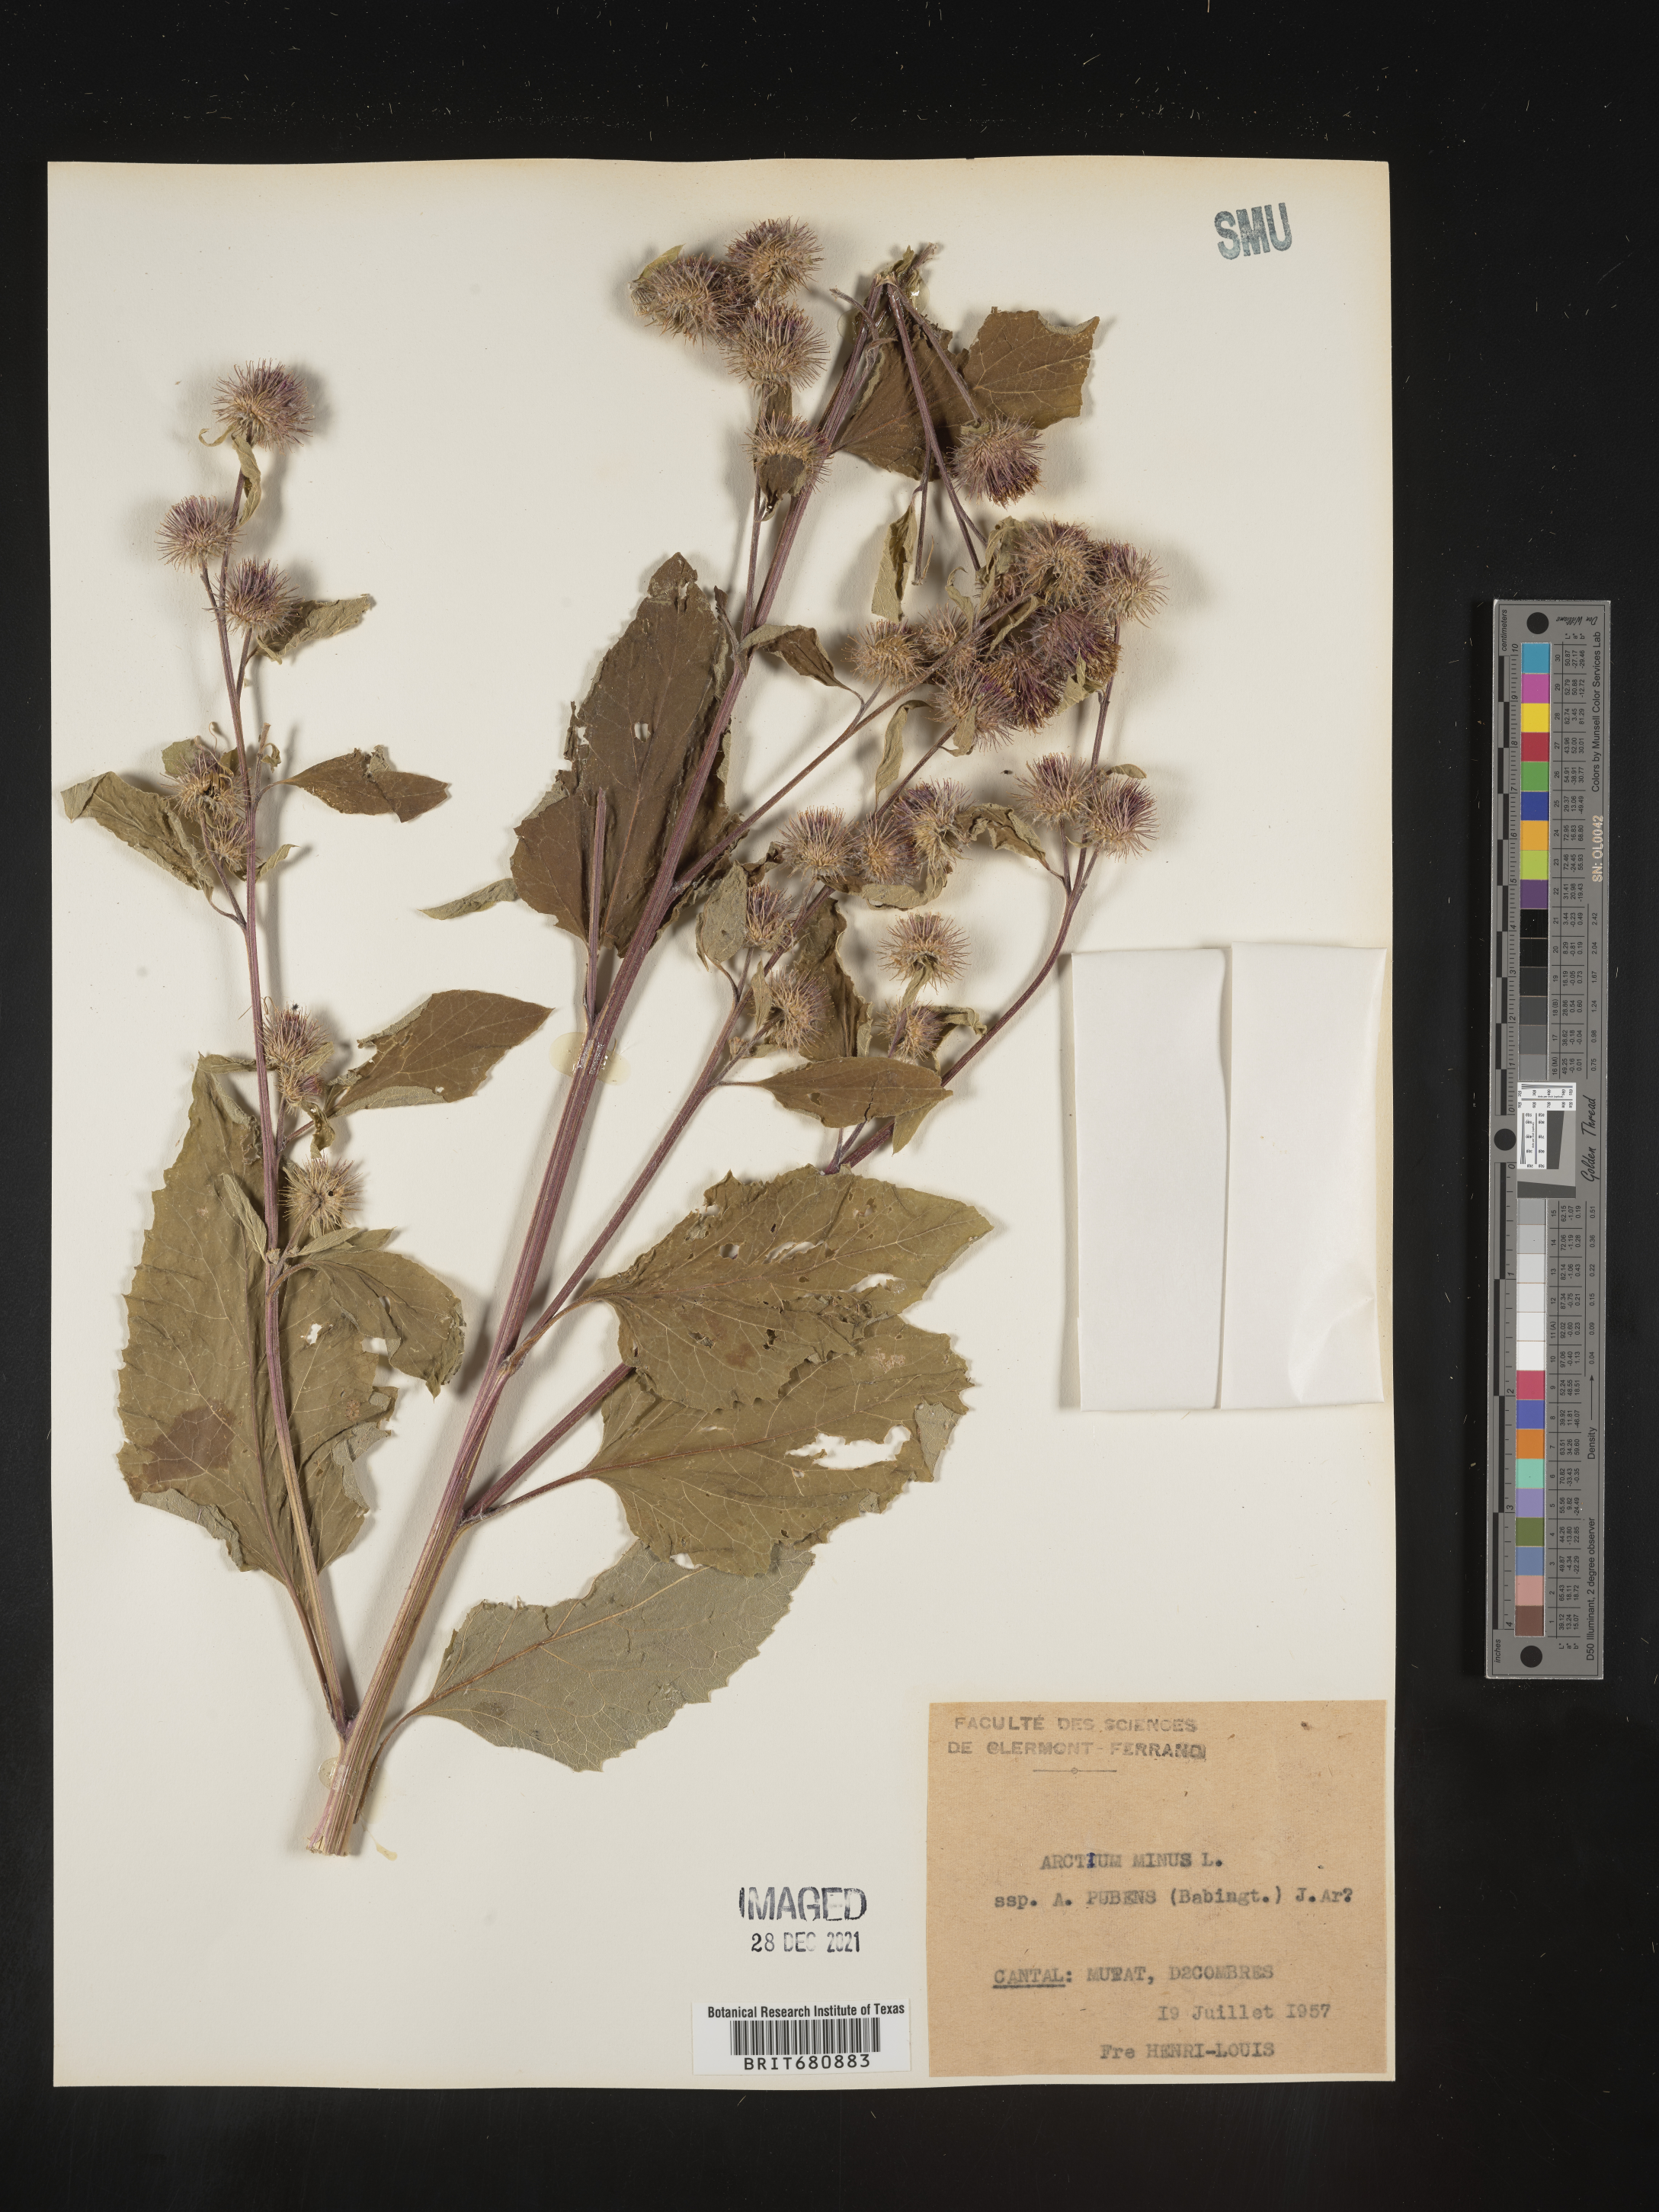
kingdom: Plantae
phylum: Tracheophyta
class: Magnoliopsida
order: Asterales
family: Asteraceae
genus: Arctium
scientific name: Arctium
